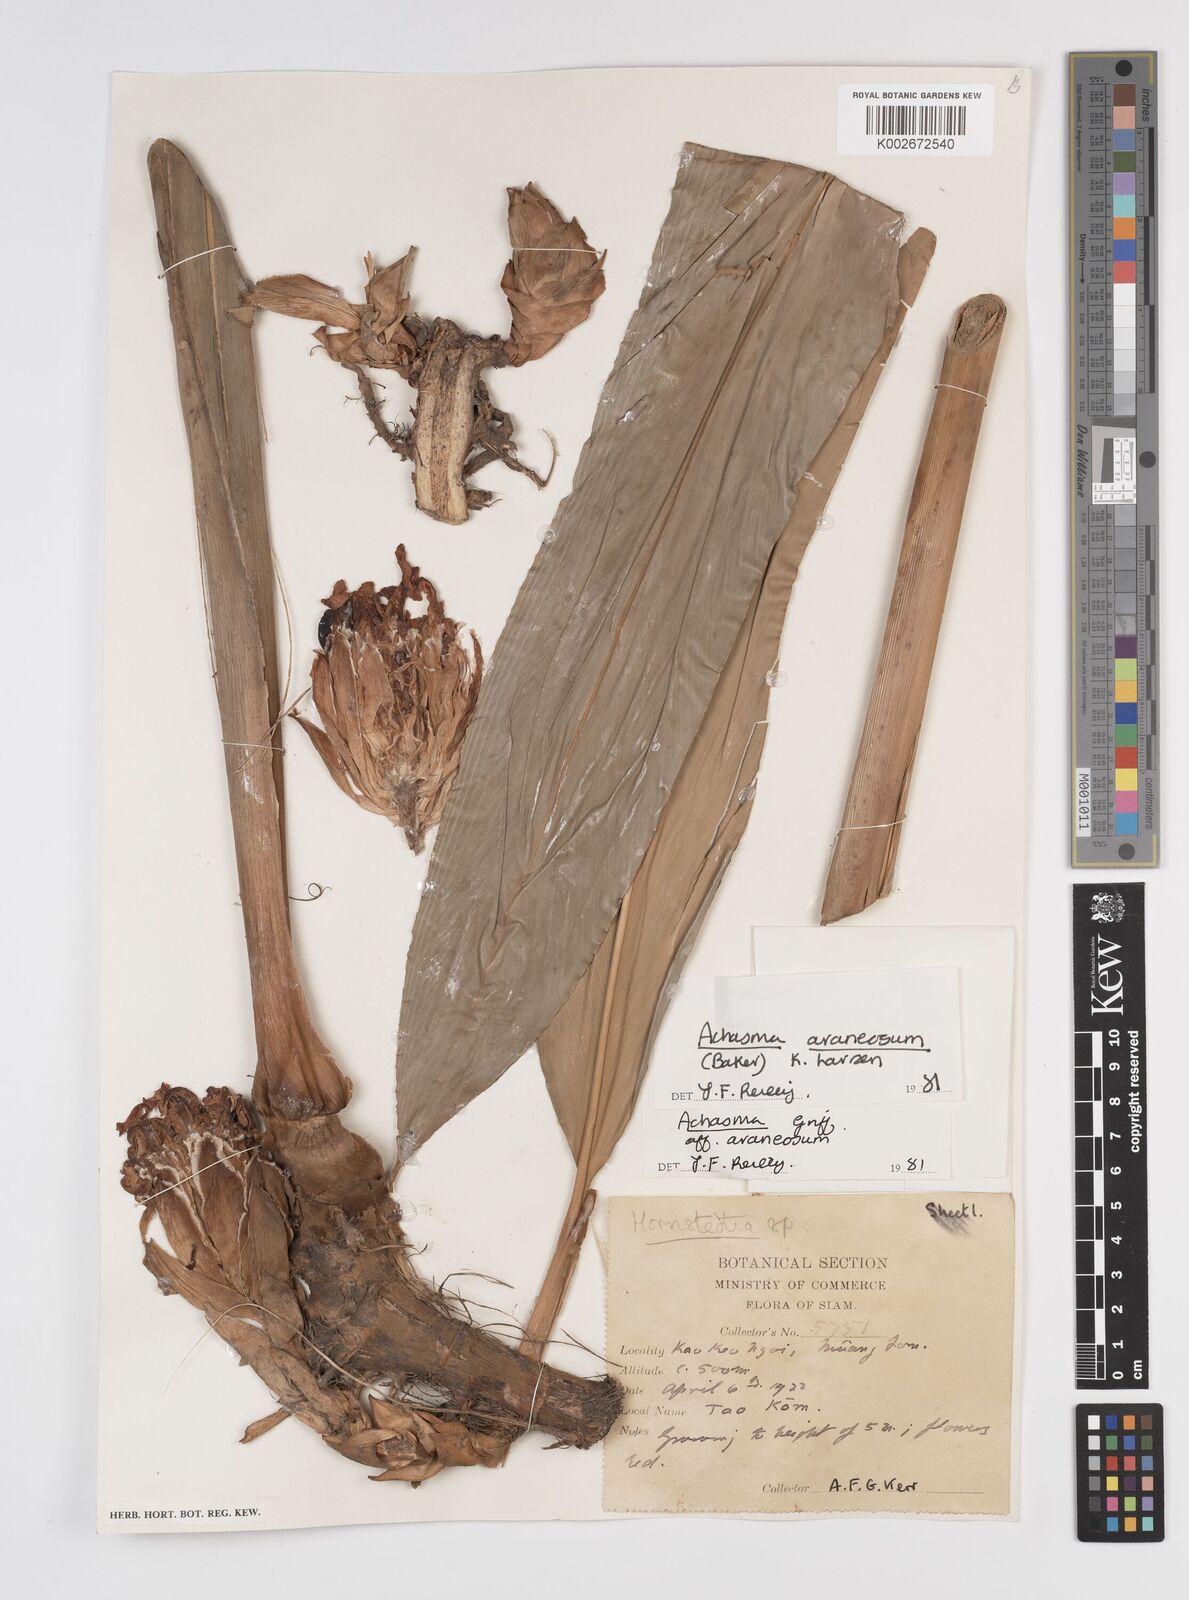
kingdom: Plantae
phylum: Tracheophyta
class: Liliopsida
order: Zingiberales
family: Zingiberaceae
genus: Etlingera
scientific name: Etlingera araneosa
